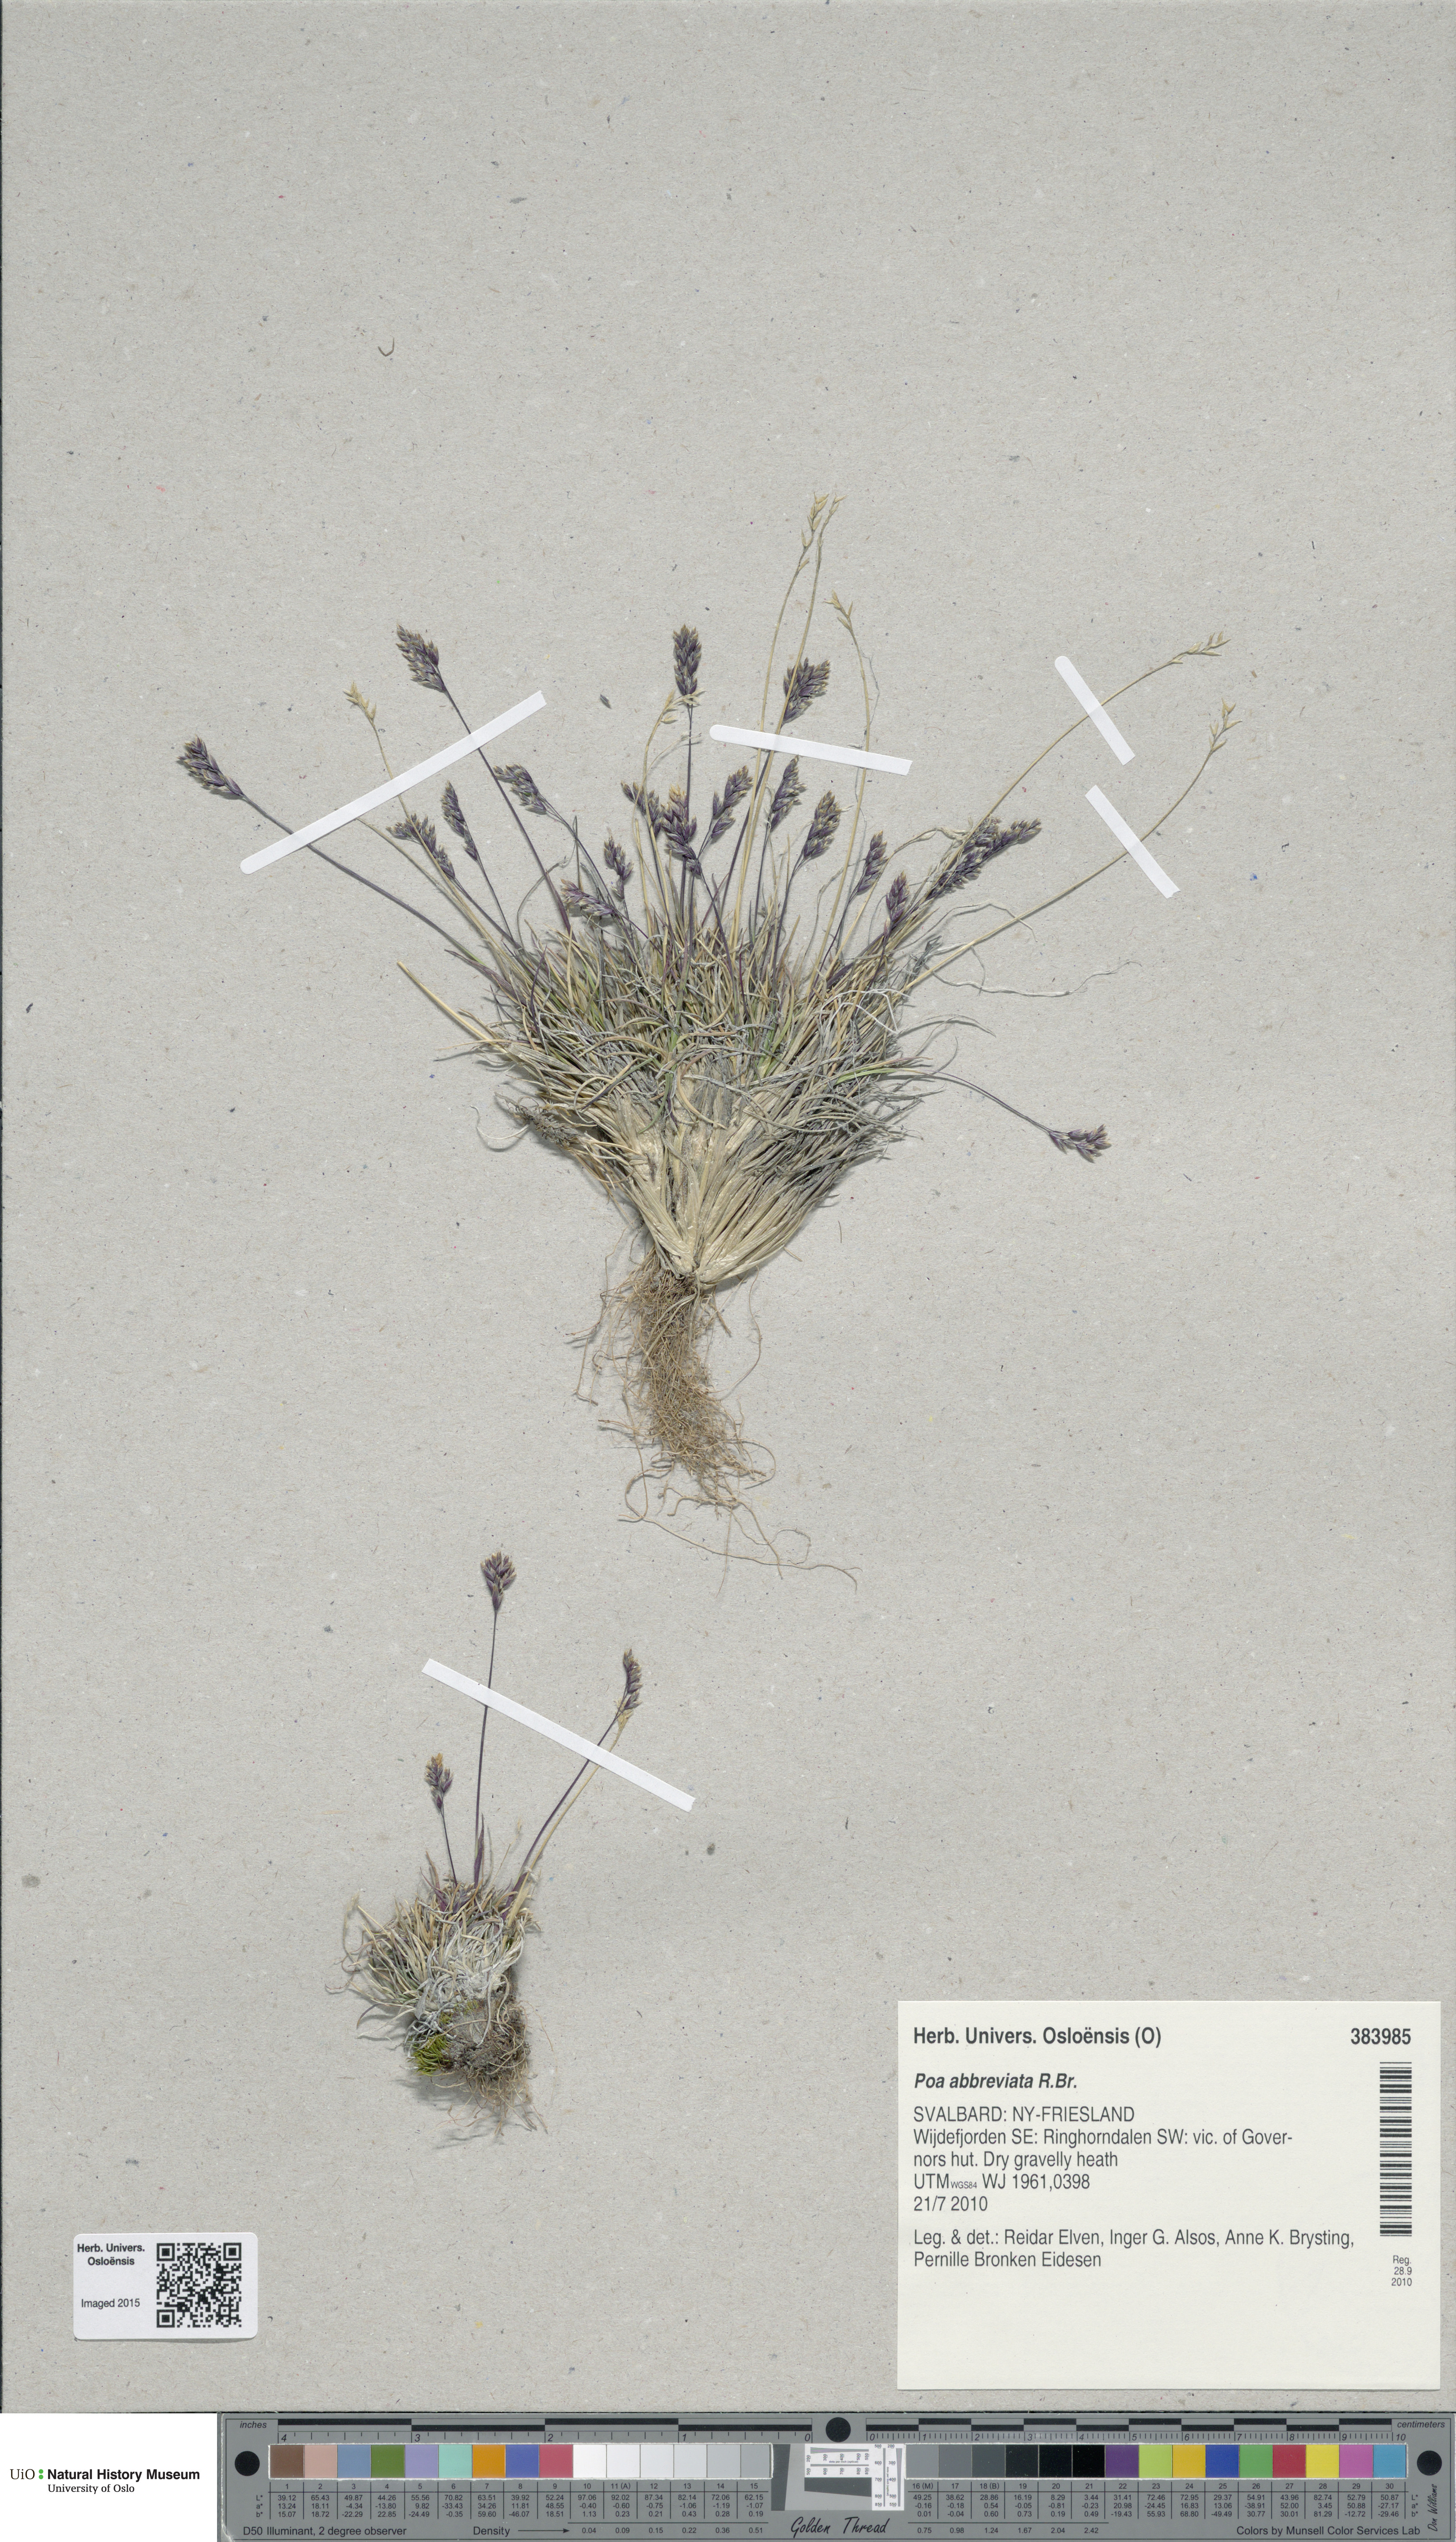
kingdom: Plantae
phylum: Tracheophyta
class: Liliopsida
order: Poales
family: Poaceae
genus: Poa
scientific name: Poa abbreviata
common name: Abbreviated bluegrass
